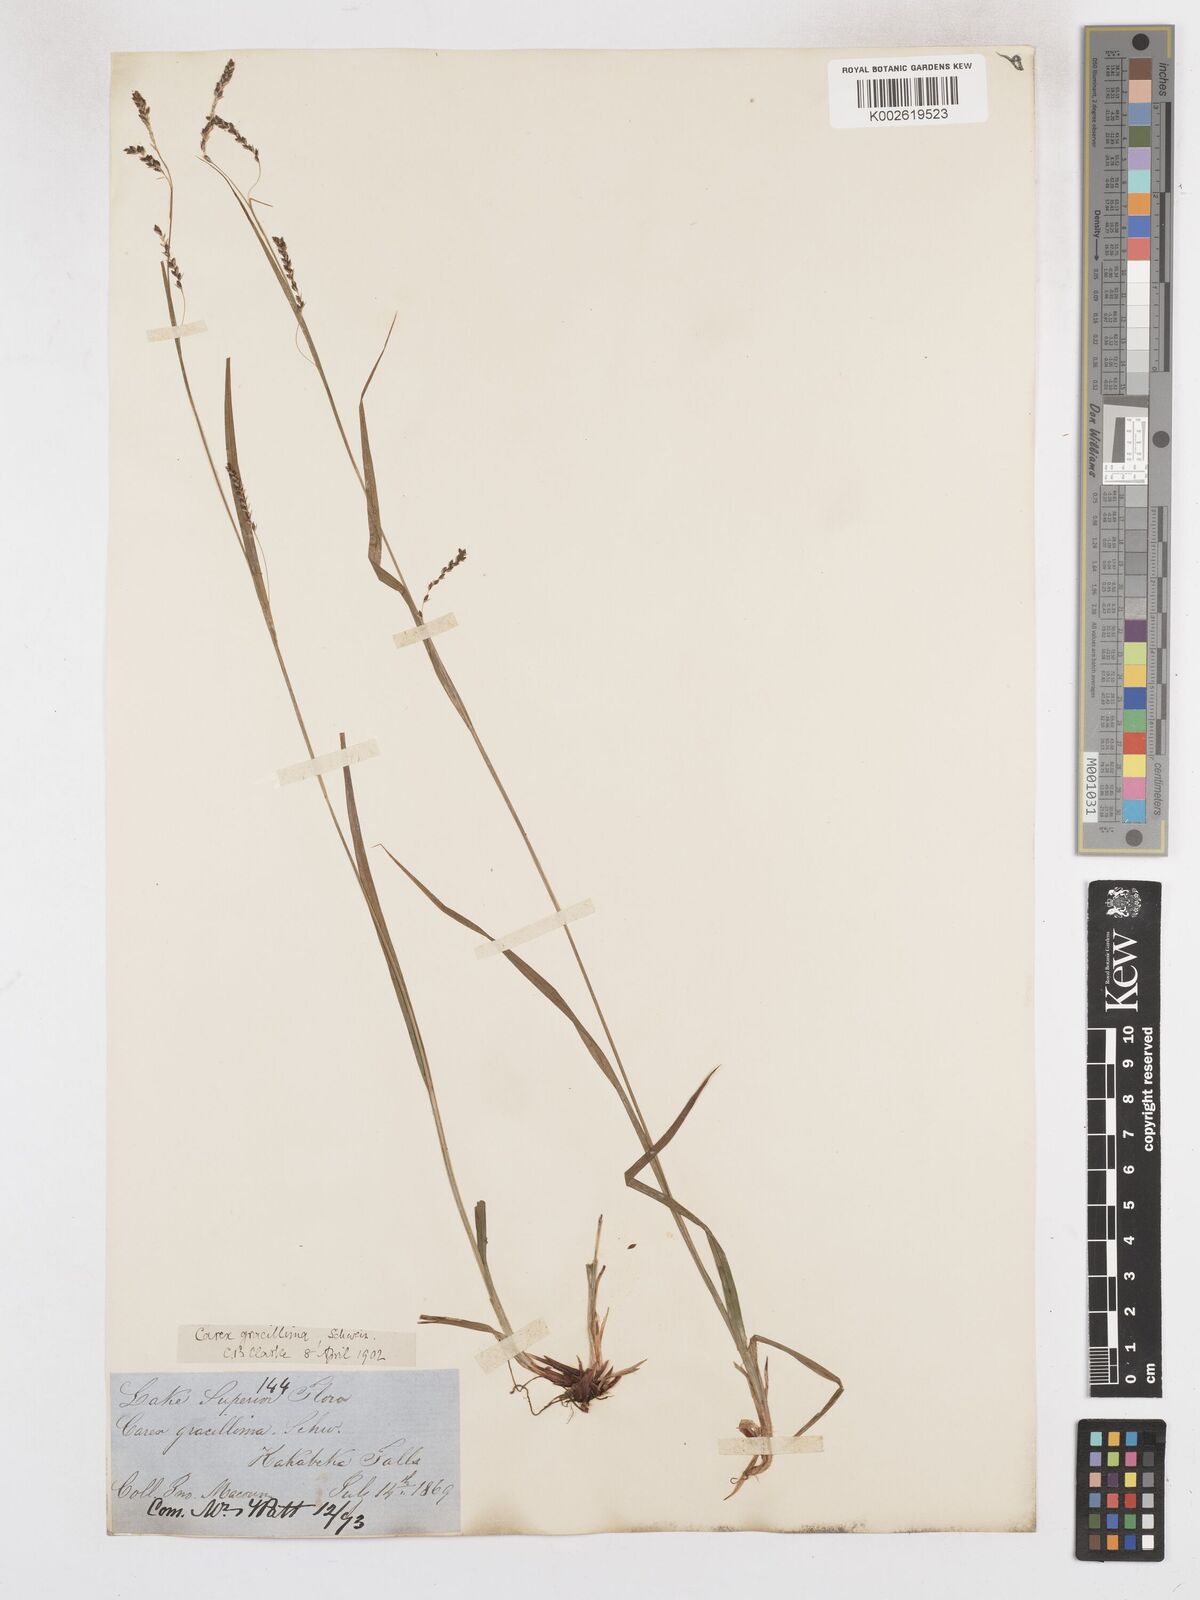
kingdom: Plantae
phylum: Tracheophyta
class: Liliopsida
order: Poales
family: Cyperaceae
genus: Carex
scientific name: Carex gracillima
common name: Graceful sedge
